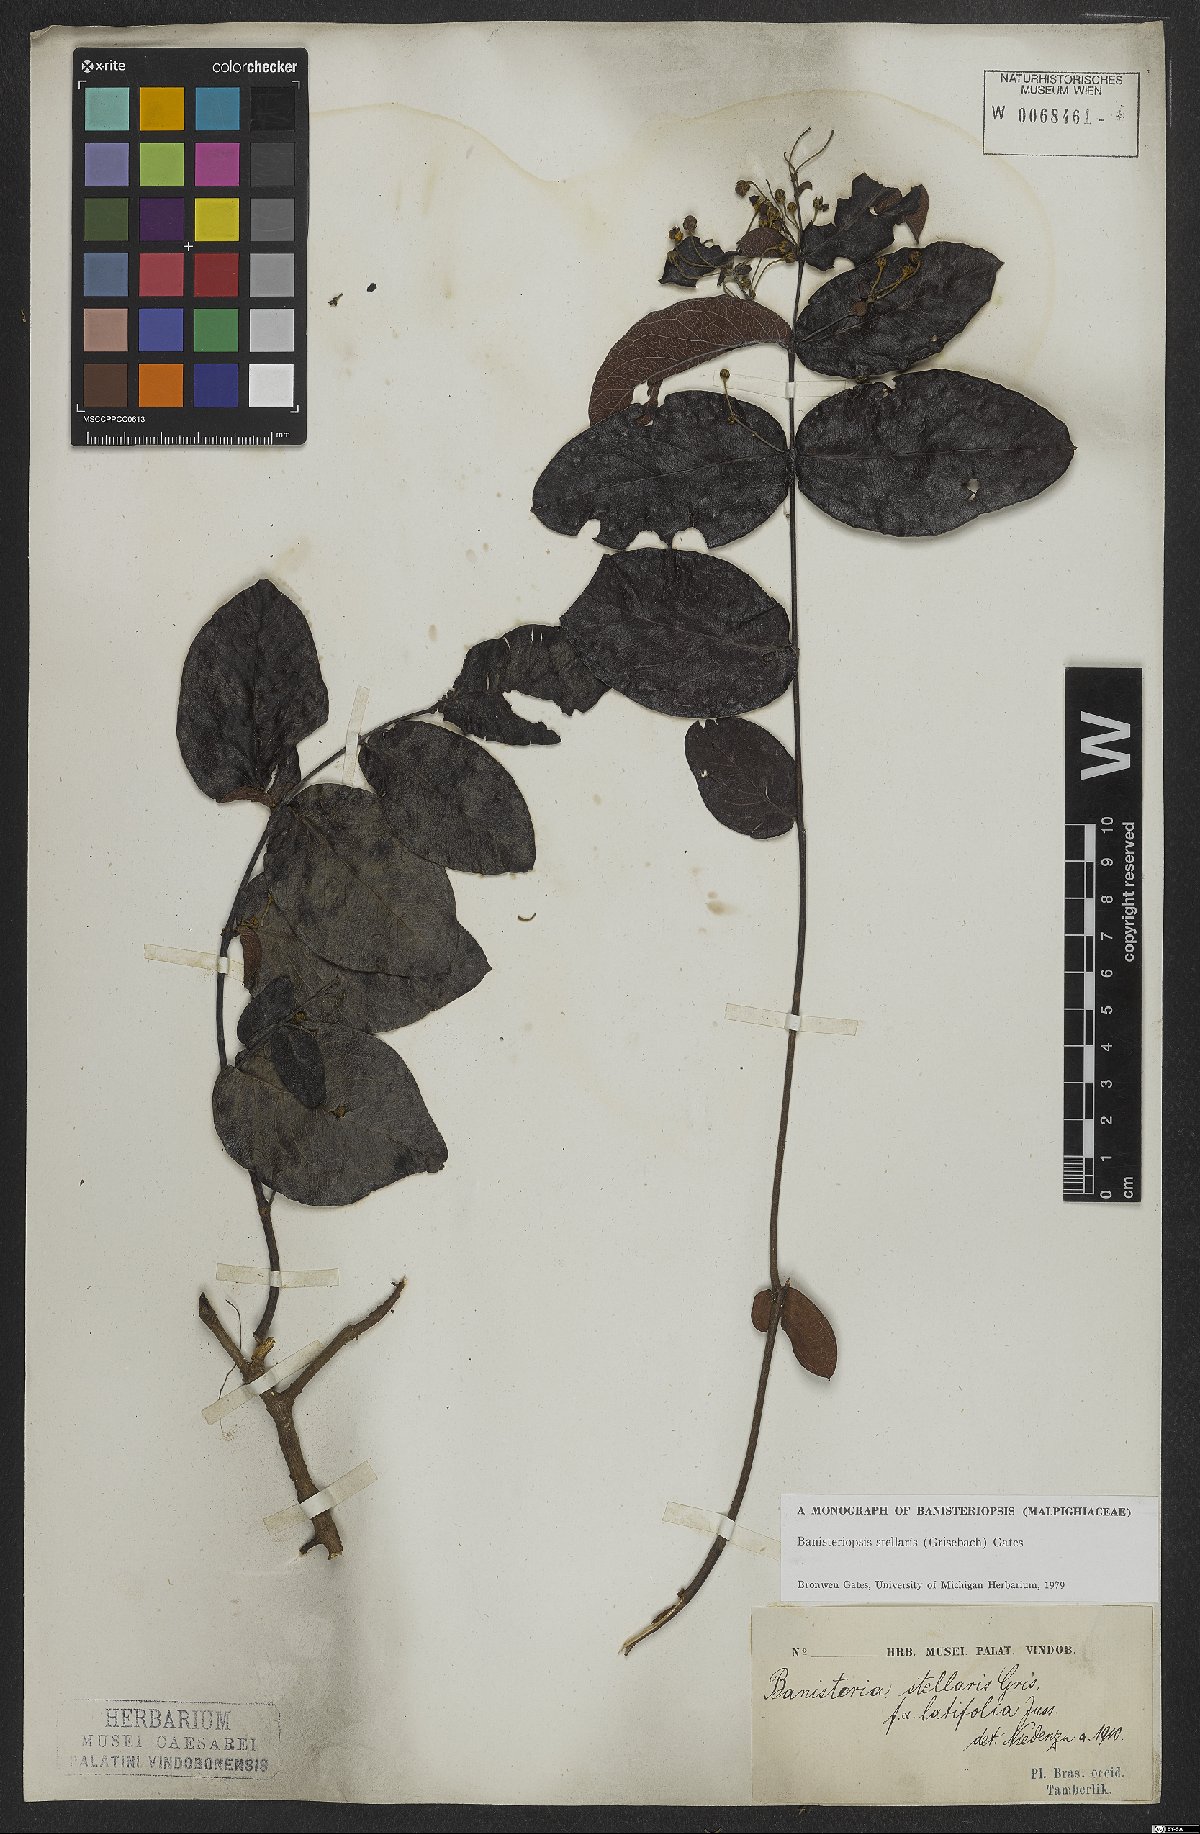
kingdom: Plantae
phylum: Tracheophyta
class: Magnoliopsida
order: Malpighiales
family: Malpighiaceae
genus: Banisteriopsis
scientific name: Banisteriopsis stellaris
